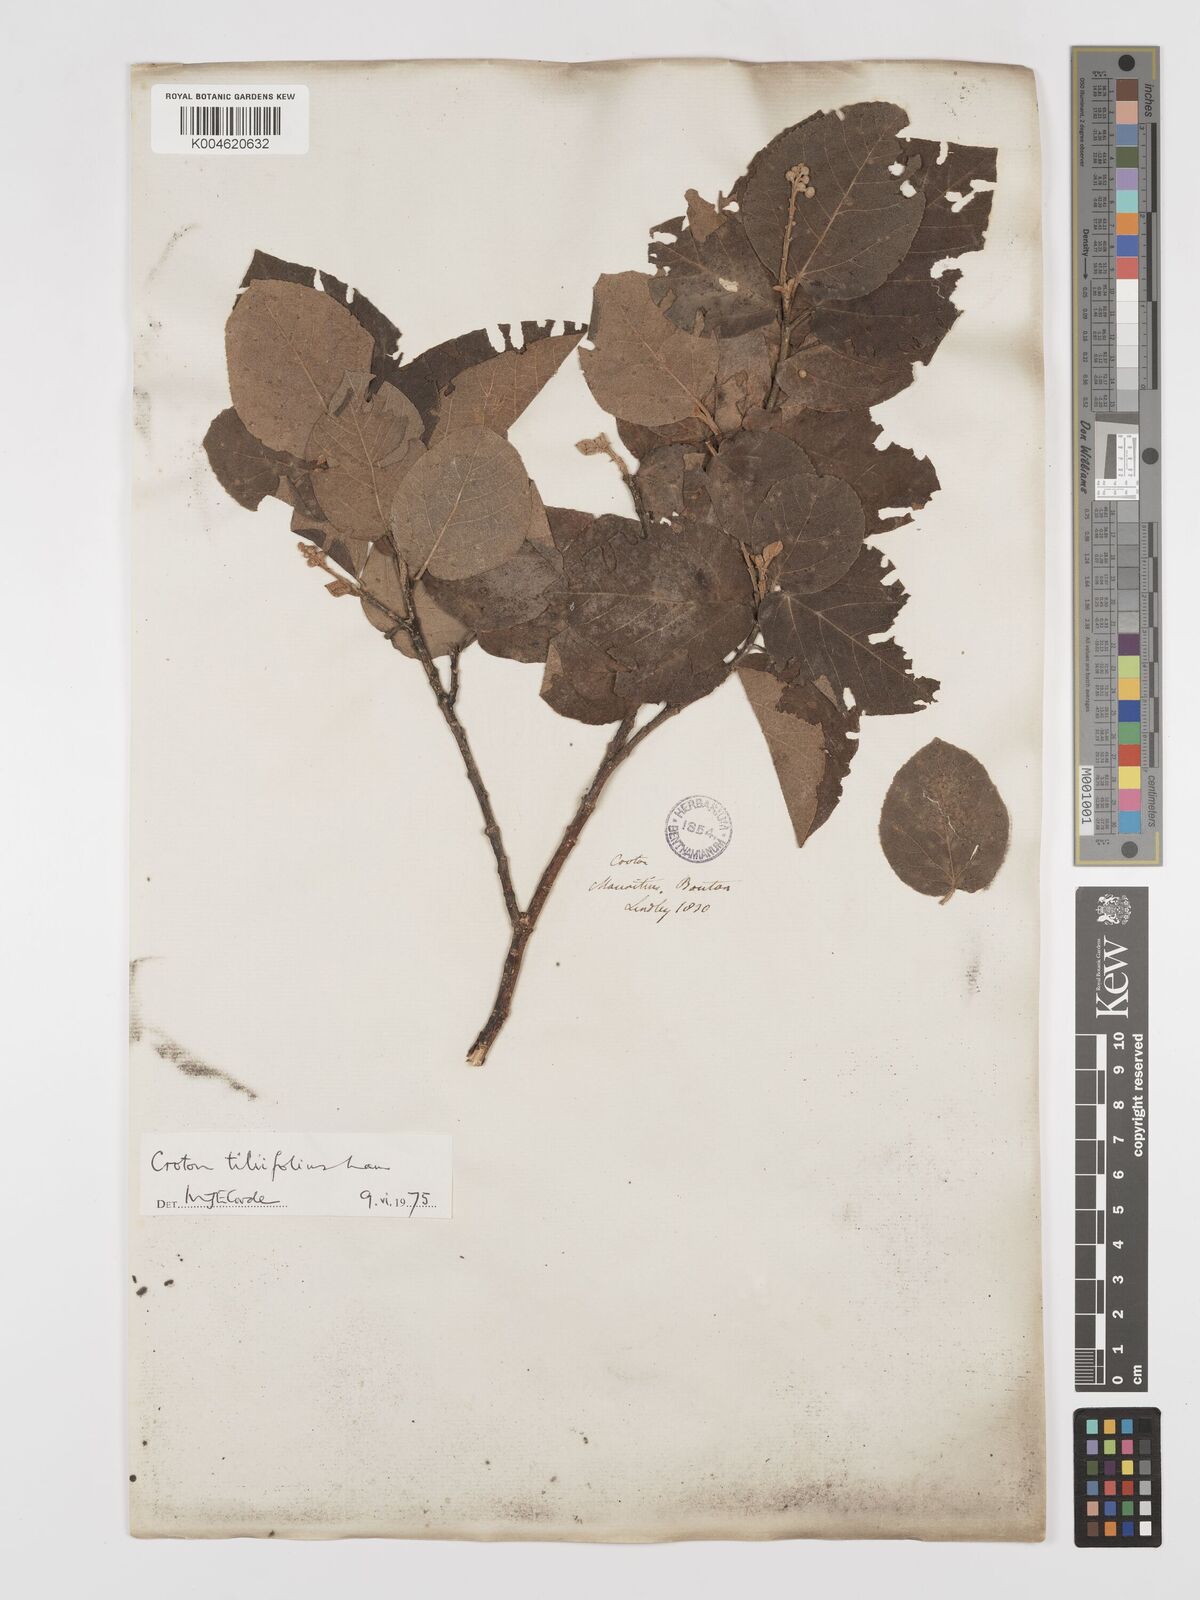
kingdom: Plantae
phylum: Tracheophyta
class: Magnoliopsida
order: Malpighiales
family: Euphorbiaceae
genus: Croton
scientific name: Croton
